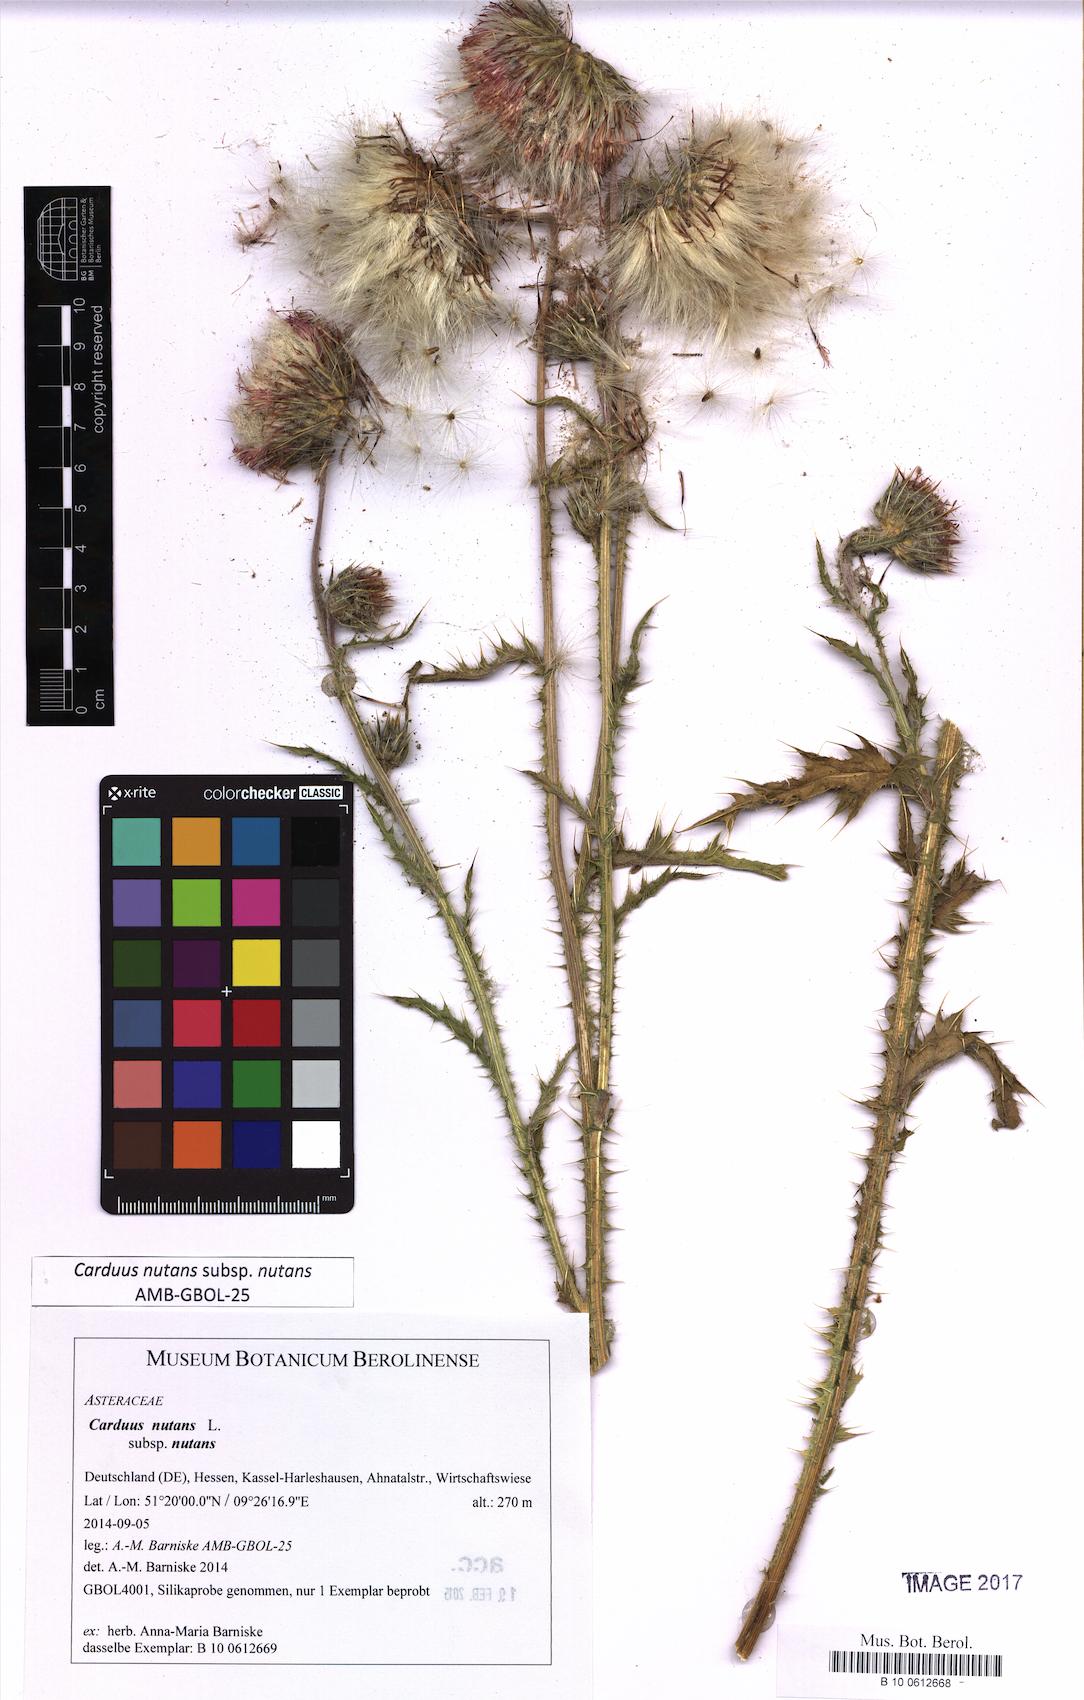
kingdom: Plantae
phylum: Tracheophyta
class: Magnoliopsida
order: Asterales
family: Asteraceae
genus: Carduus
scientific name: Carduus nutans
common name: Musk thistle
